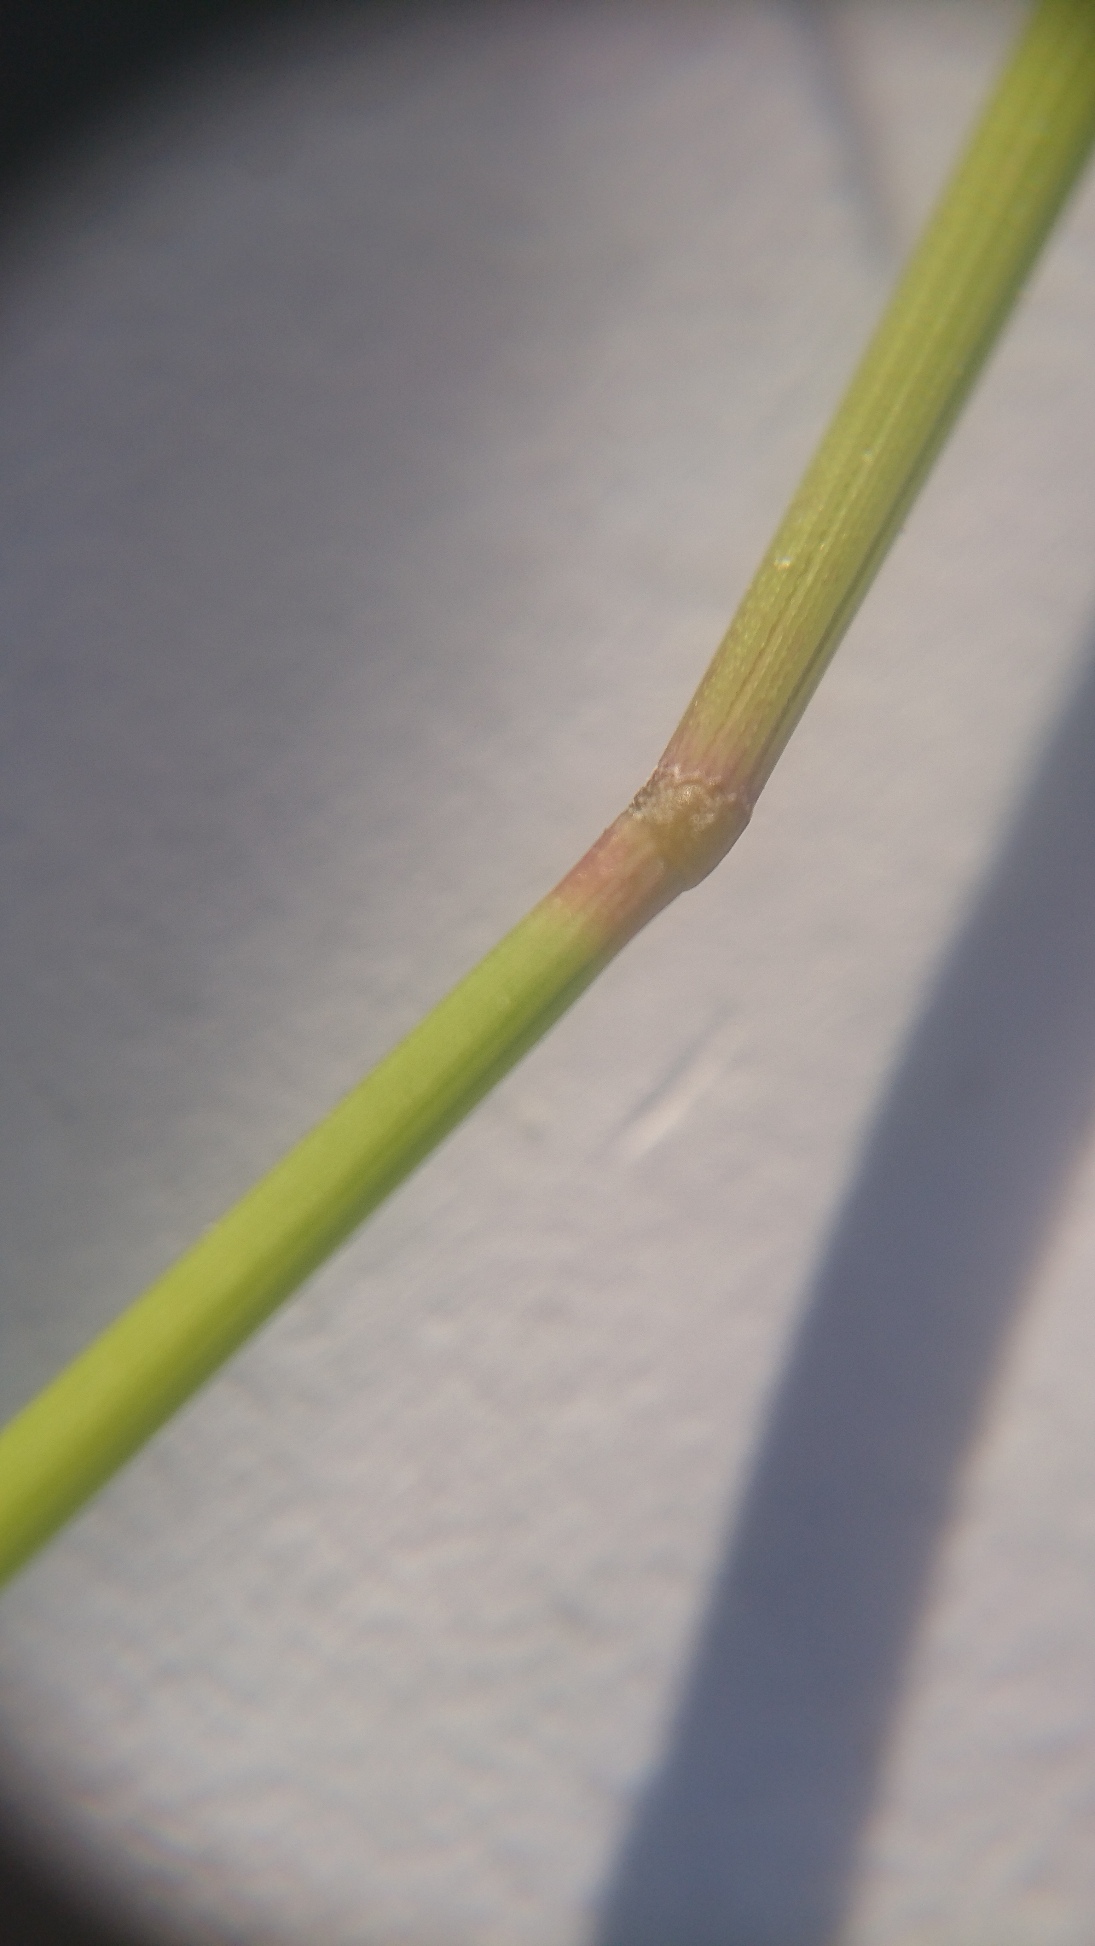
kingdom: Plantae
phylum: Tracheophyta
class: Liliopsida
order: Poales
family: Poaceae
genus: Elymus
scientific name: Elymus repens
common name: Almindelig kvik
